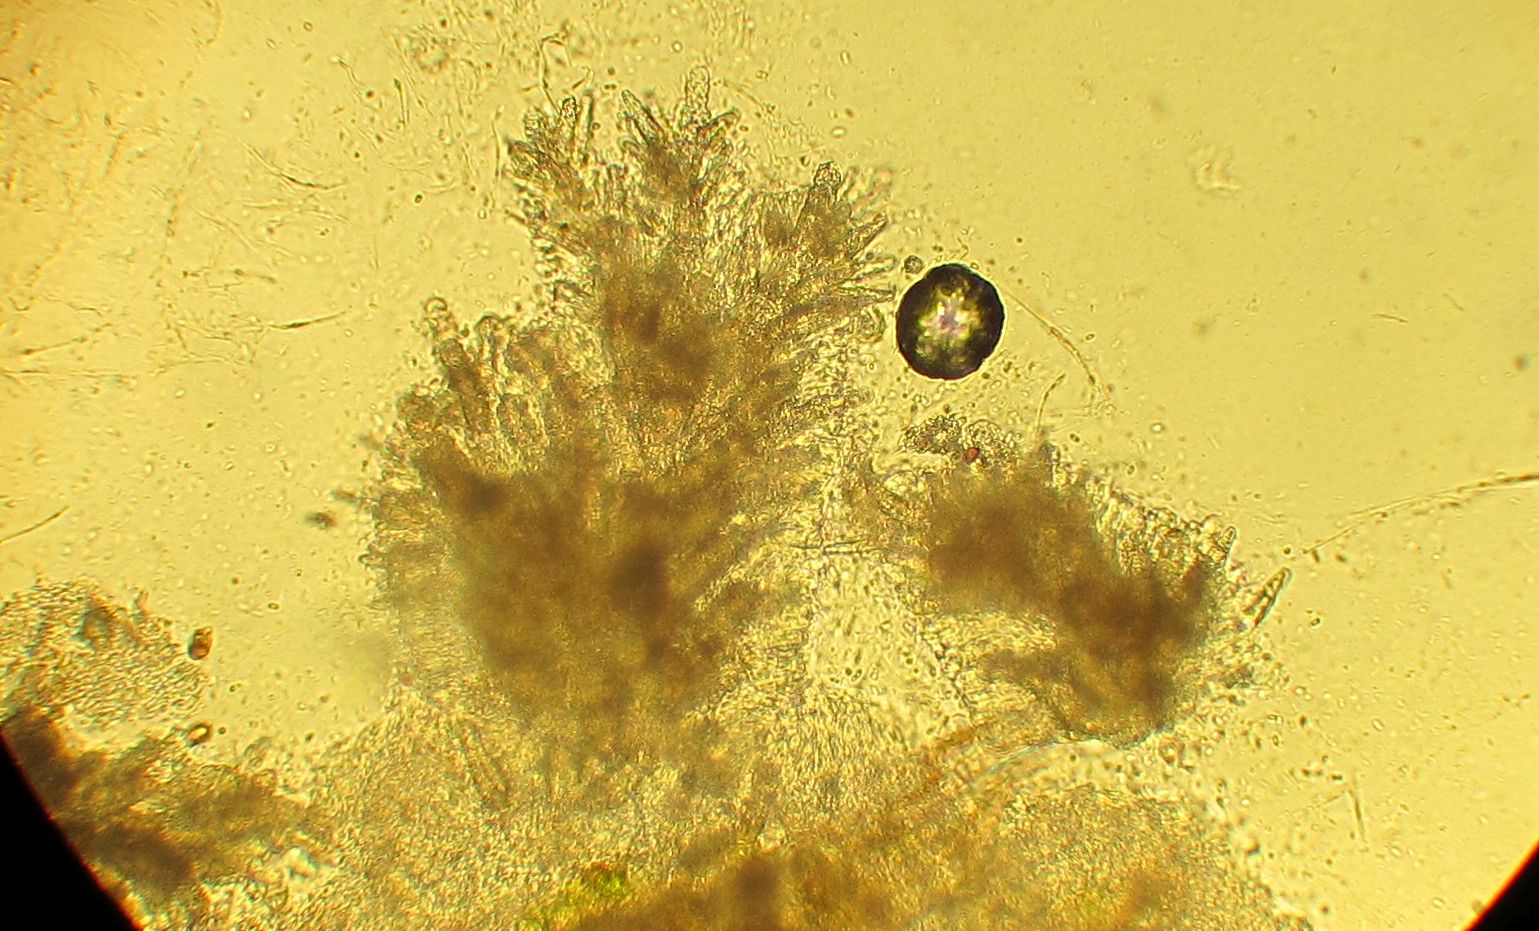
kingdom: Fungi
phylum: Basidiomycota
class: Agaricomycetes
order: Polyporales
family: Meruliaceae
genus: Scopuloides
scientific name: Scopuloides rimosa
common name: dughinde
